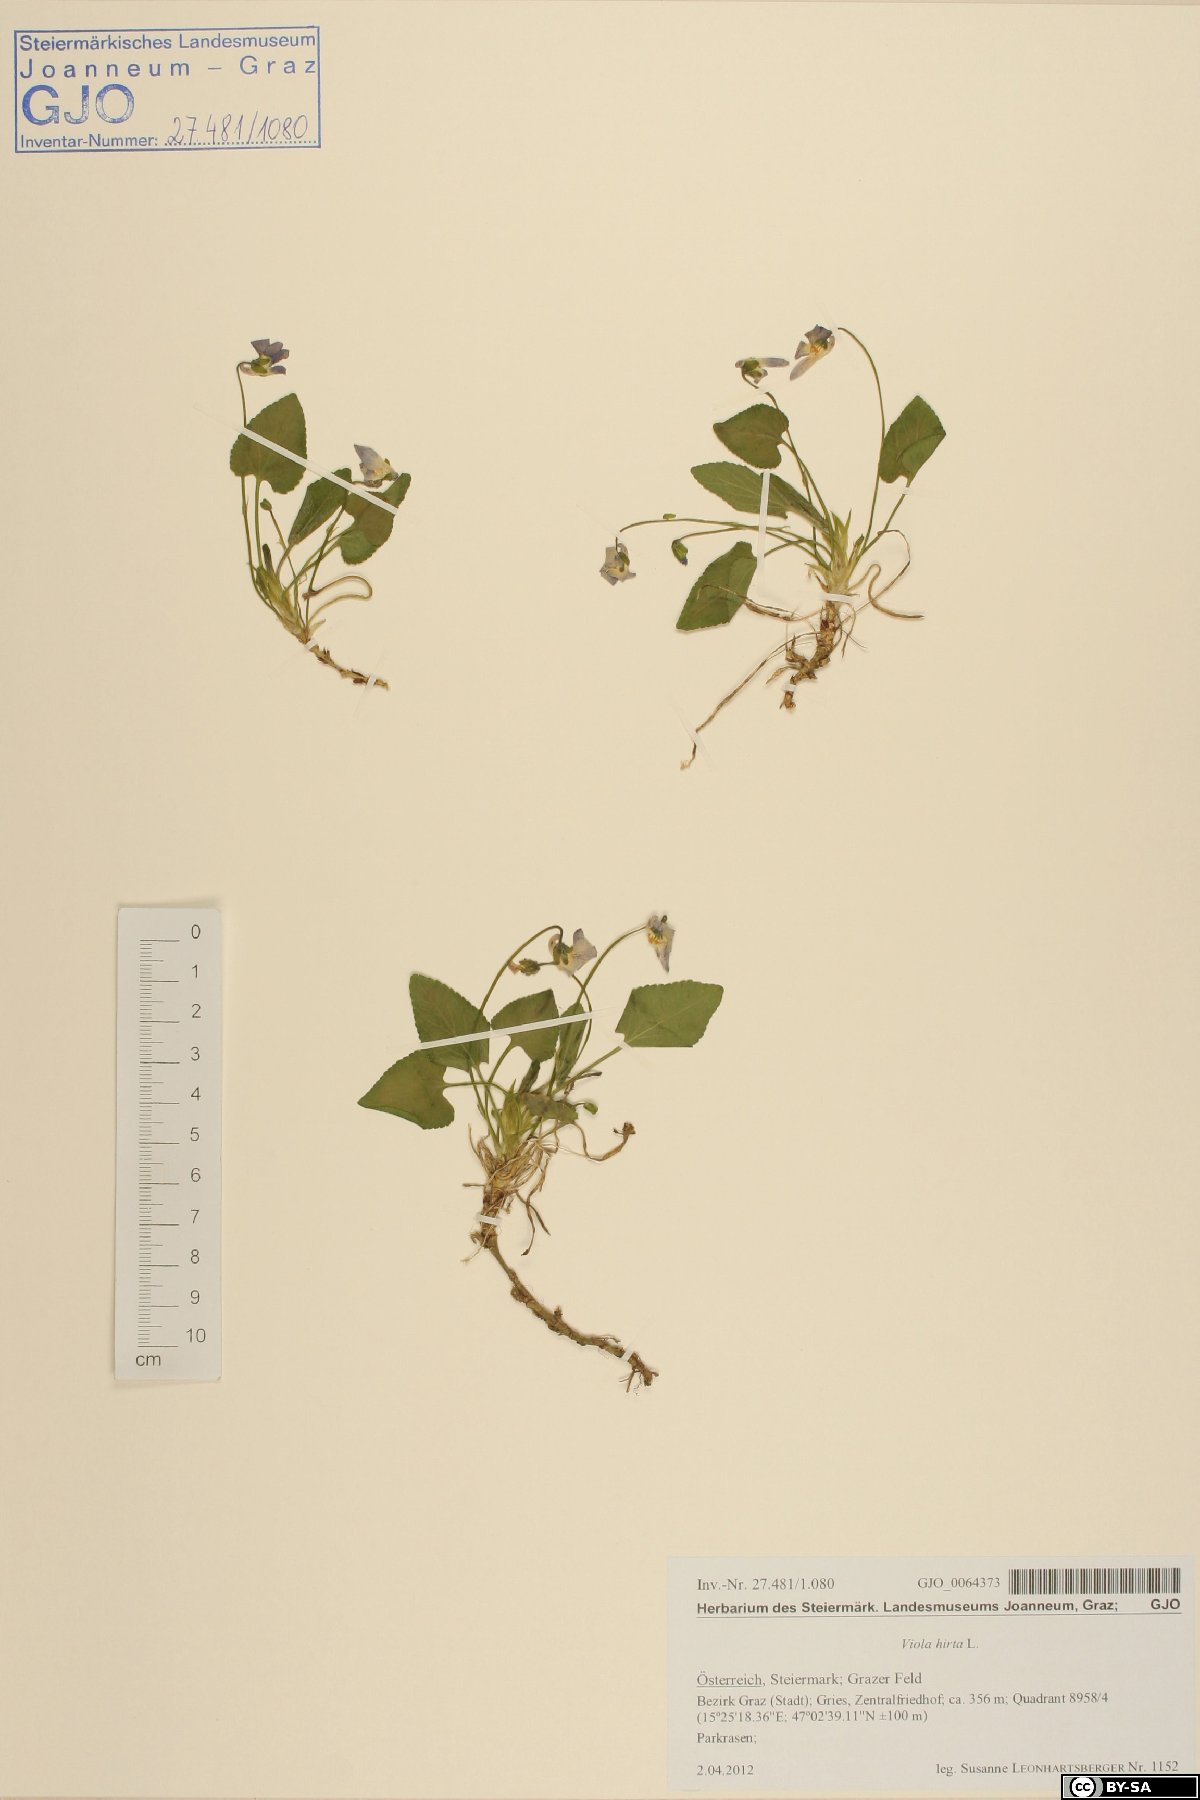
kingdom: Plantae
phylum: Tracheophyta
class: Magnoliopsida
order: Malpighiales
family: Violaceae
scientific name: Violaceae
